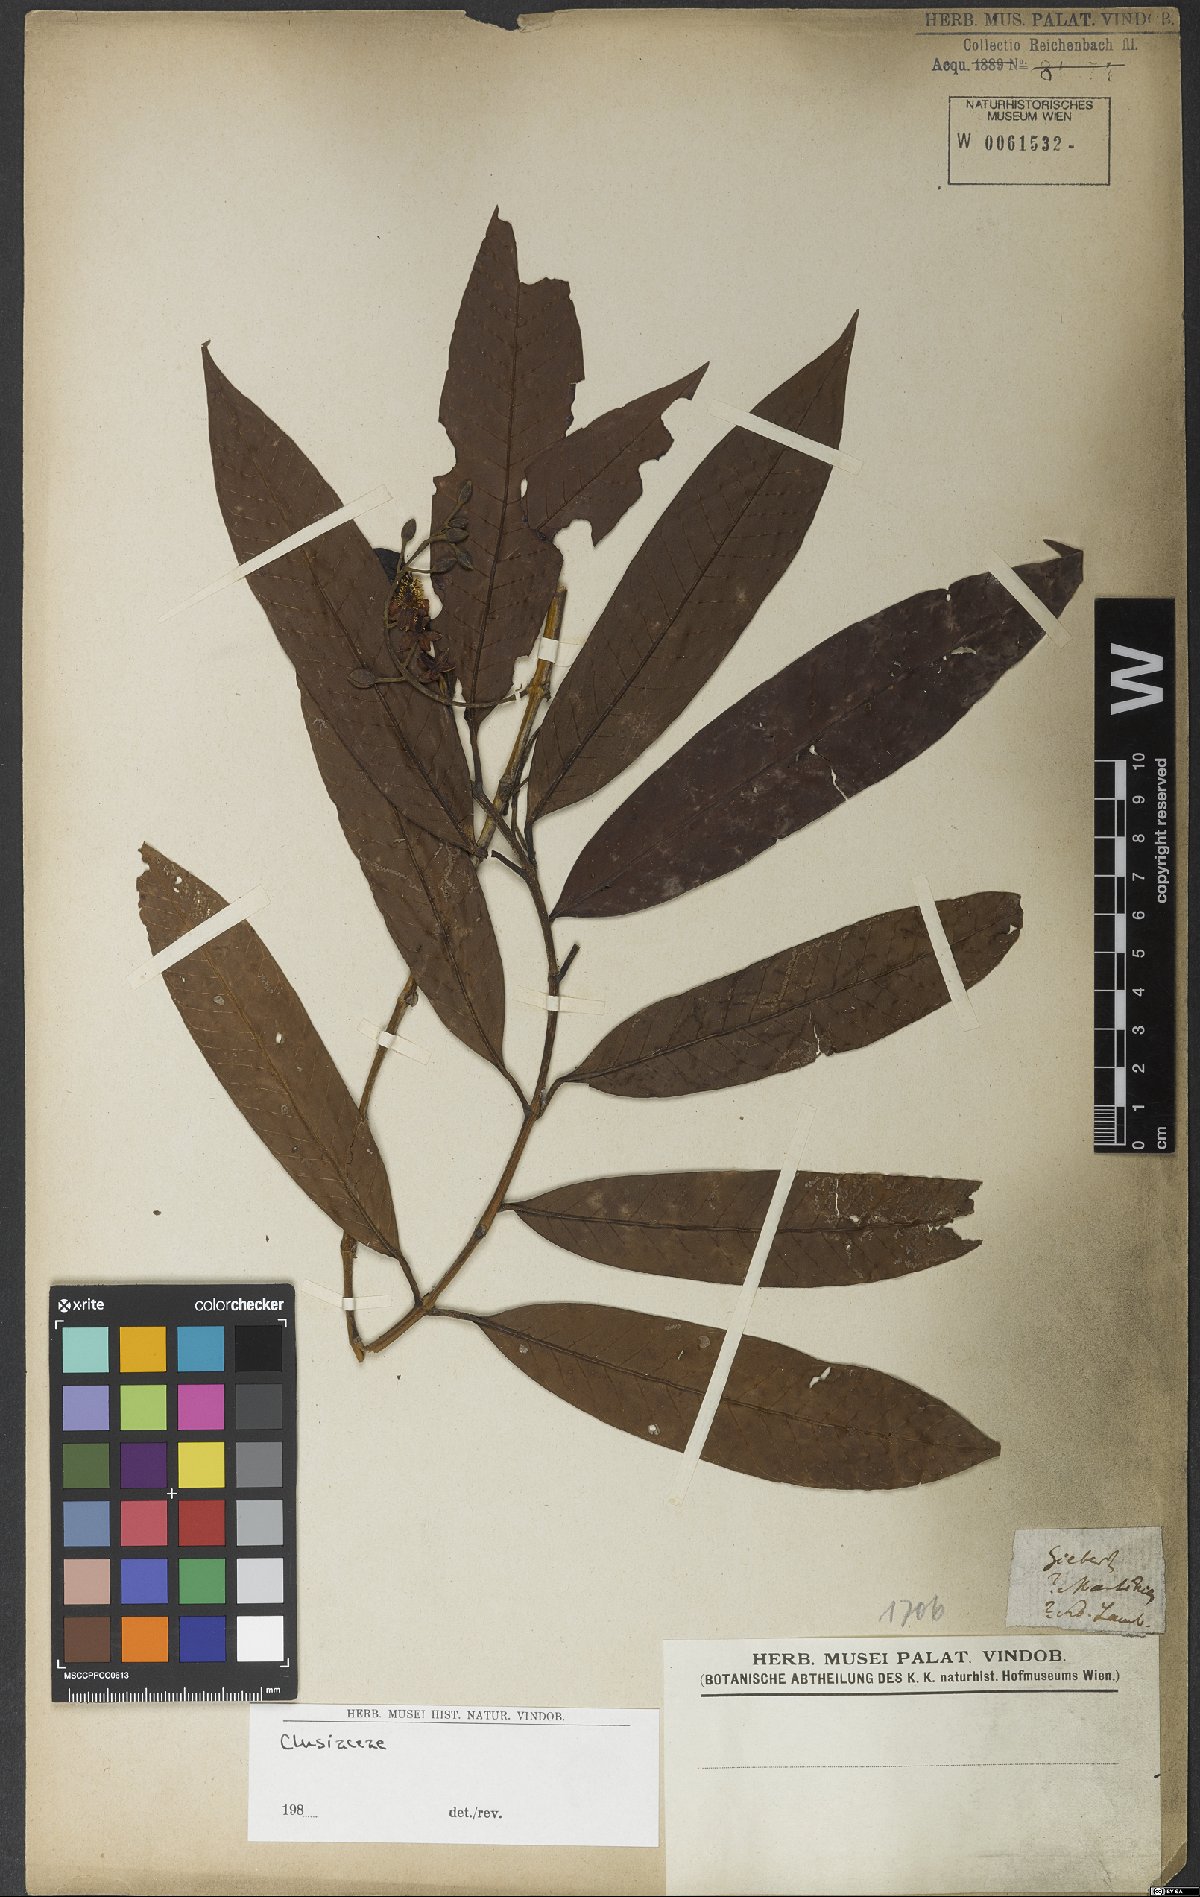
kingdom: Plantae
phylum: Tracheophyta
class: Magnoliopsida
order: Malpighiales
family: Hypericaceae
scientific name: Hypericaceae
